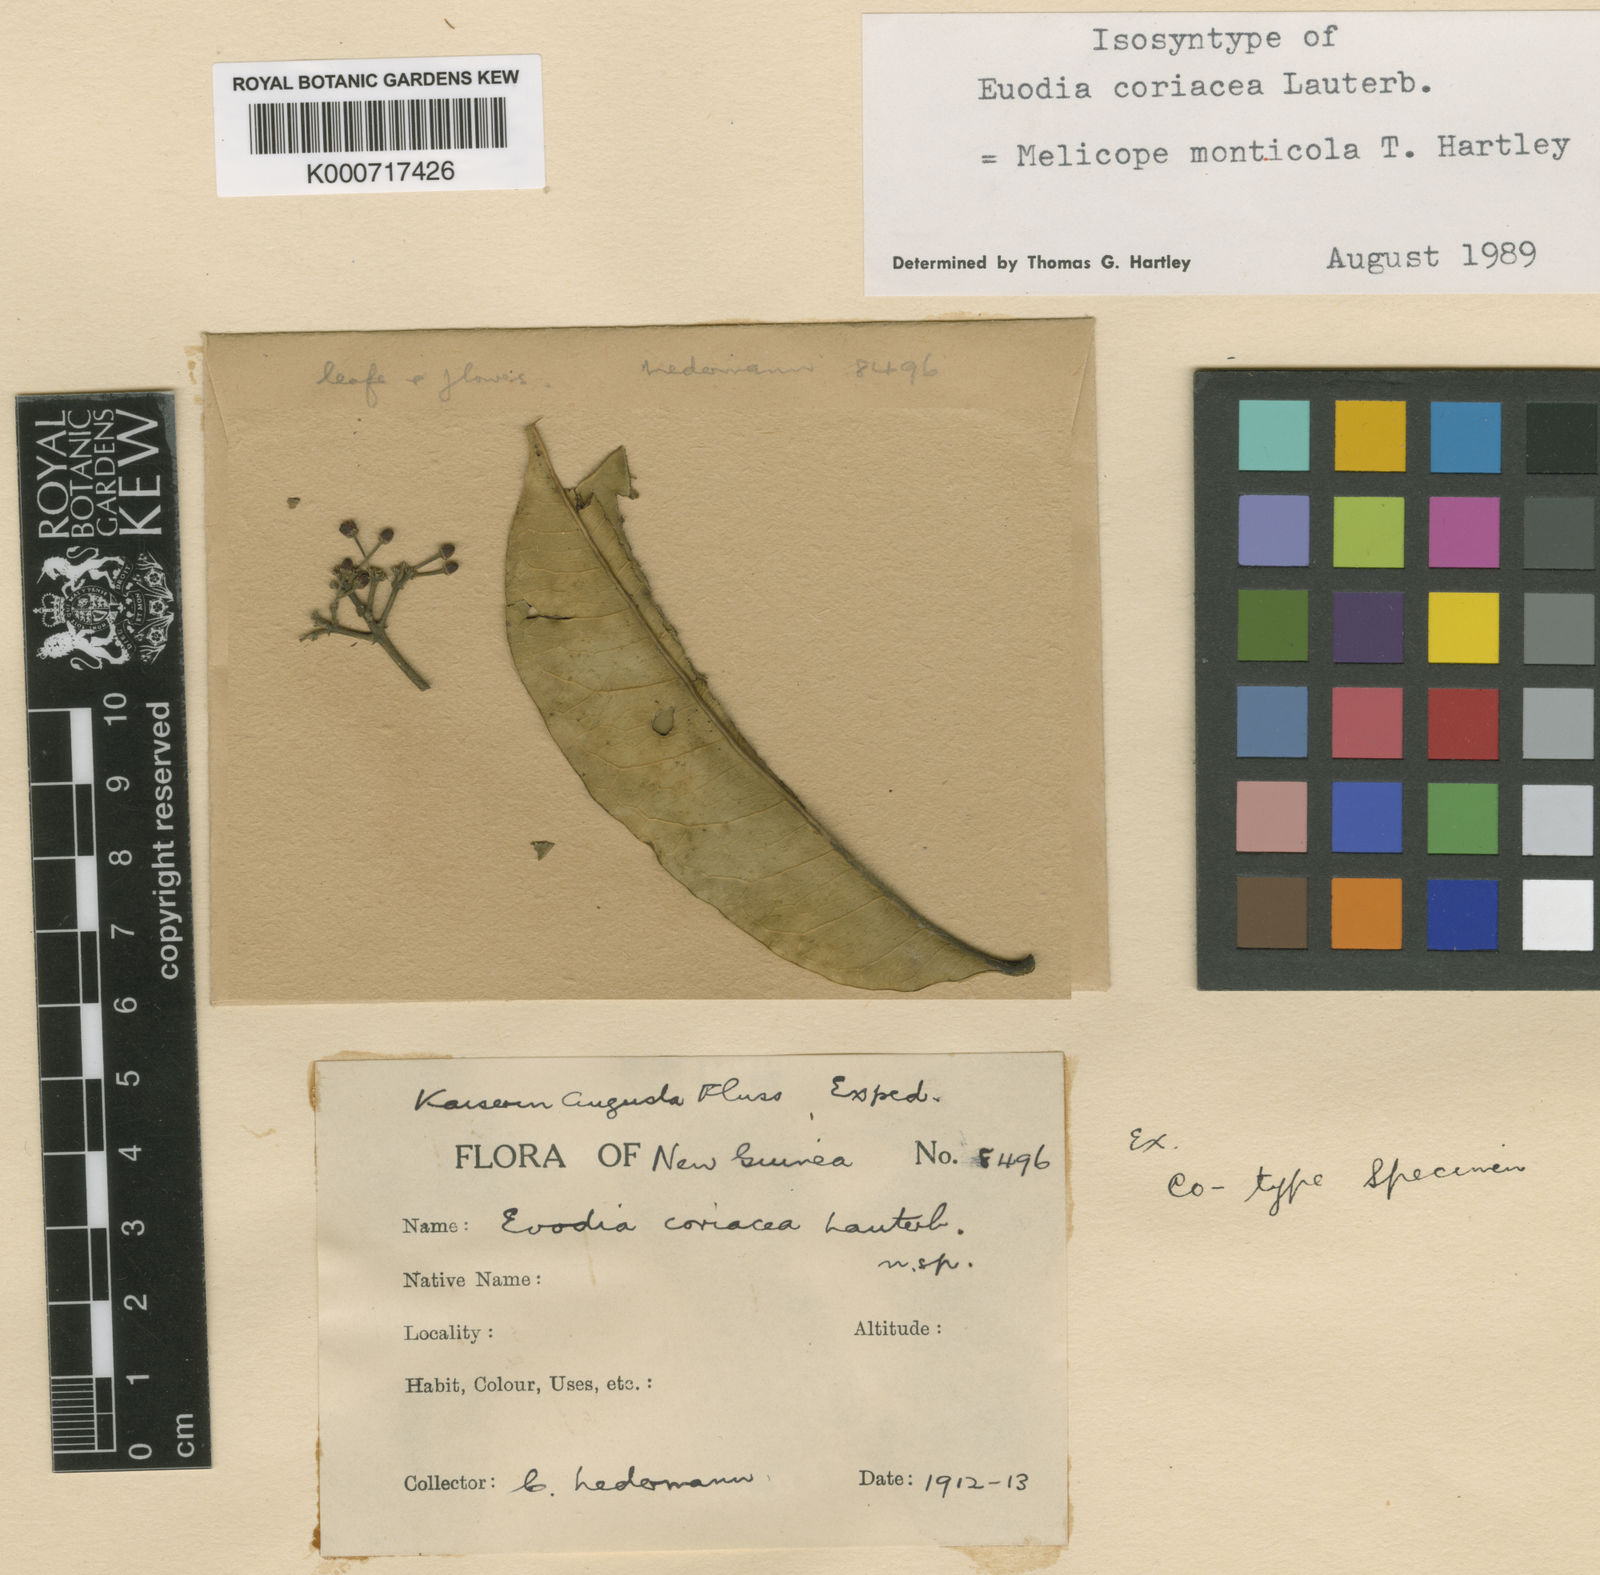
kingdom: Plantae
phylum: Tracheophyta
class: Magnoliopsida
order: Sapindales
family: Rutaceae
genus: Melicope
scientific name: Melicope monticola
